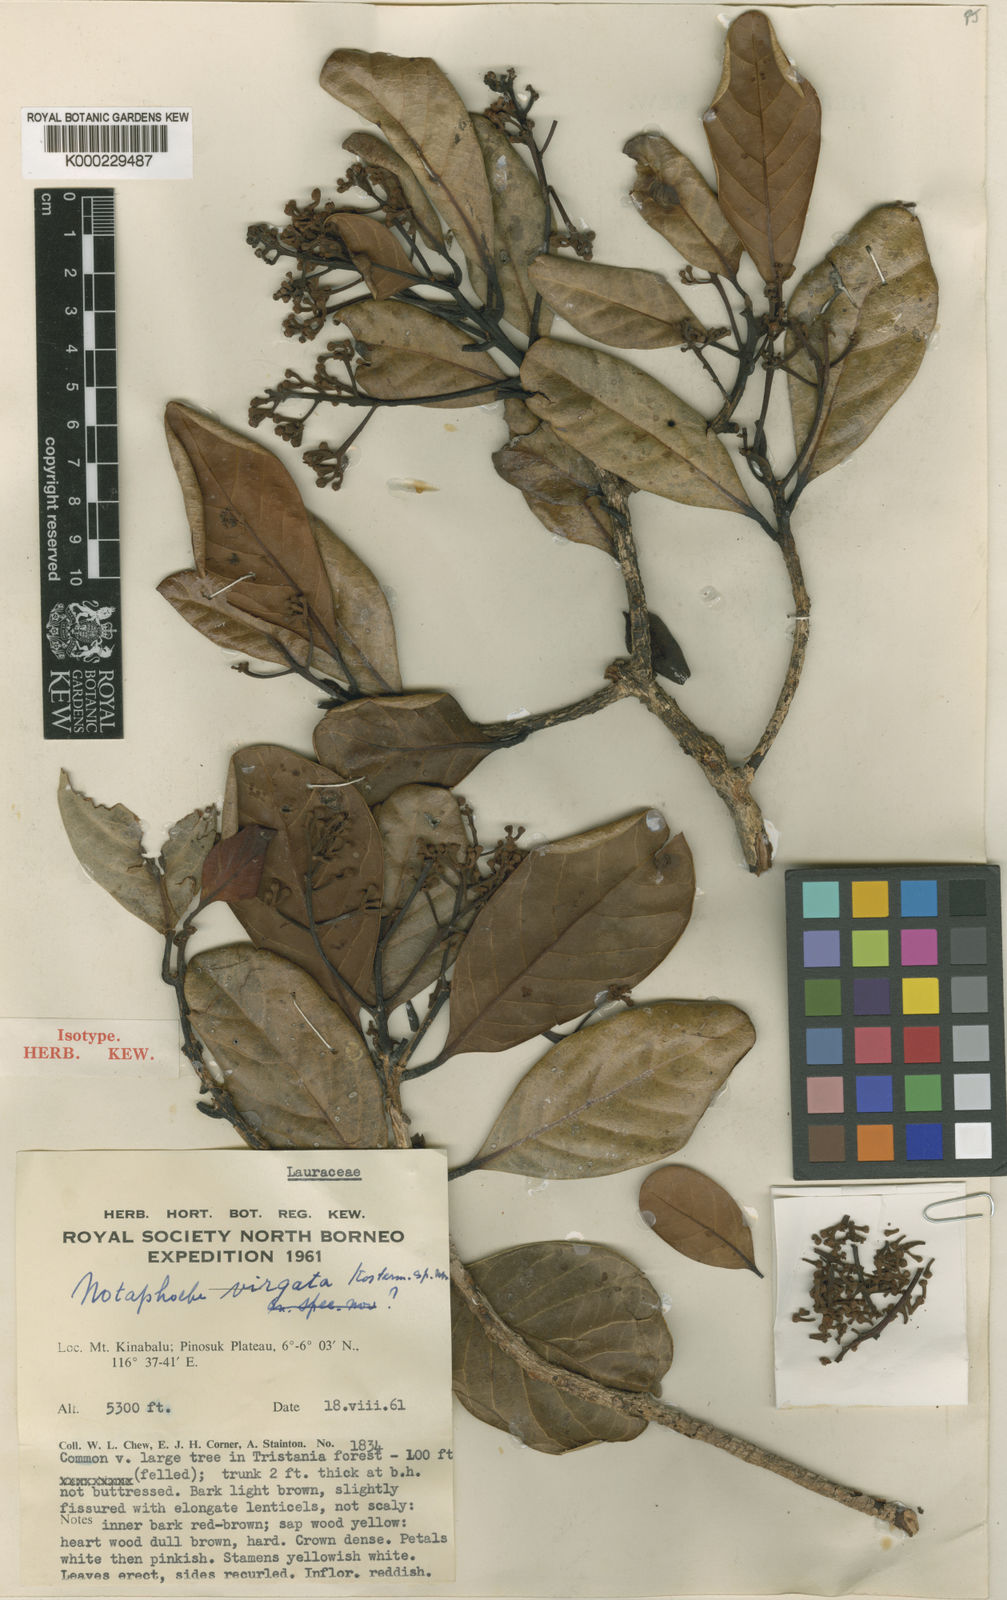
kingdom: Plantae
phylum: Tracheophyta
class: Magnoliopsida
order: Laurales
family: Lauraceae
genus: Nothaphoebe
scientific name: Nothaphoebe
